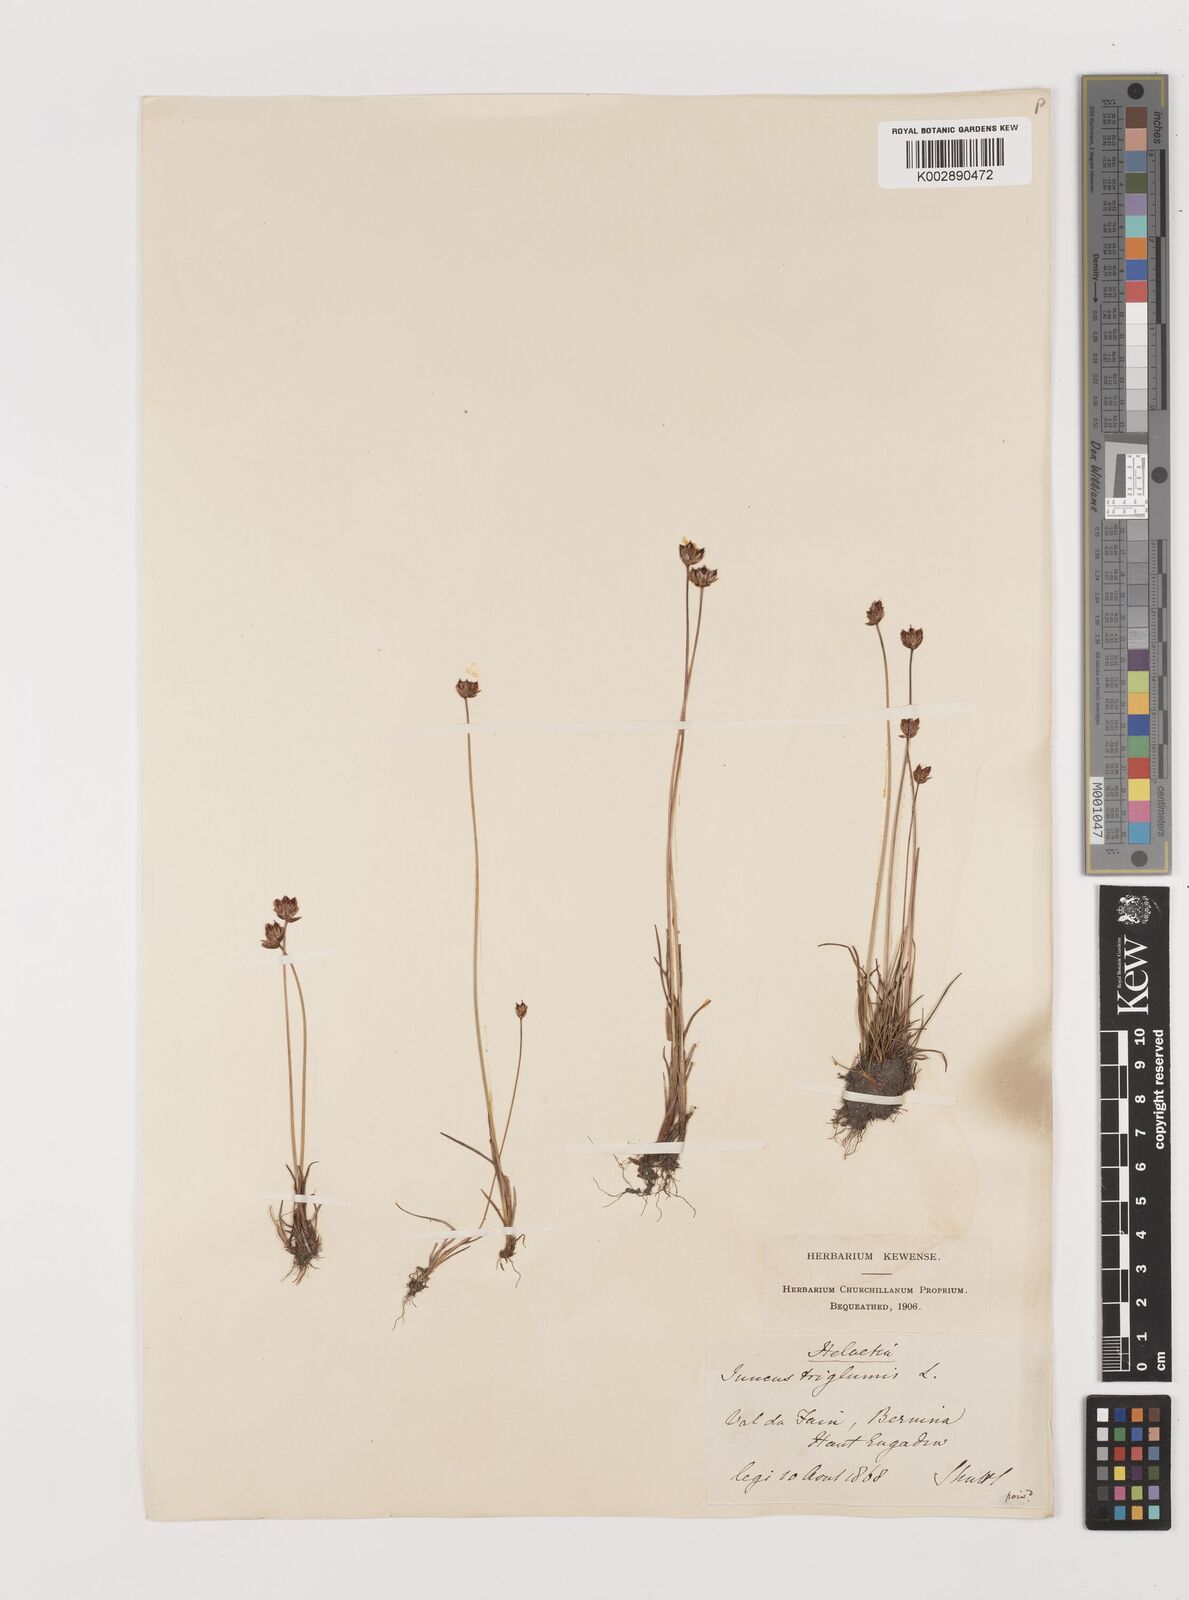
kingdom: Plantae
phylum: Tracheophyta
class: Liliopsida
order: Poales
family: Juncaceae
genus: Juncus
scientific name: Juncus triglumis
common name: Three-flowered rush
